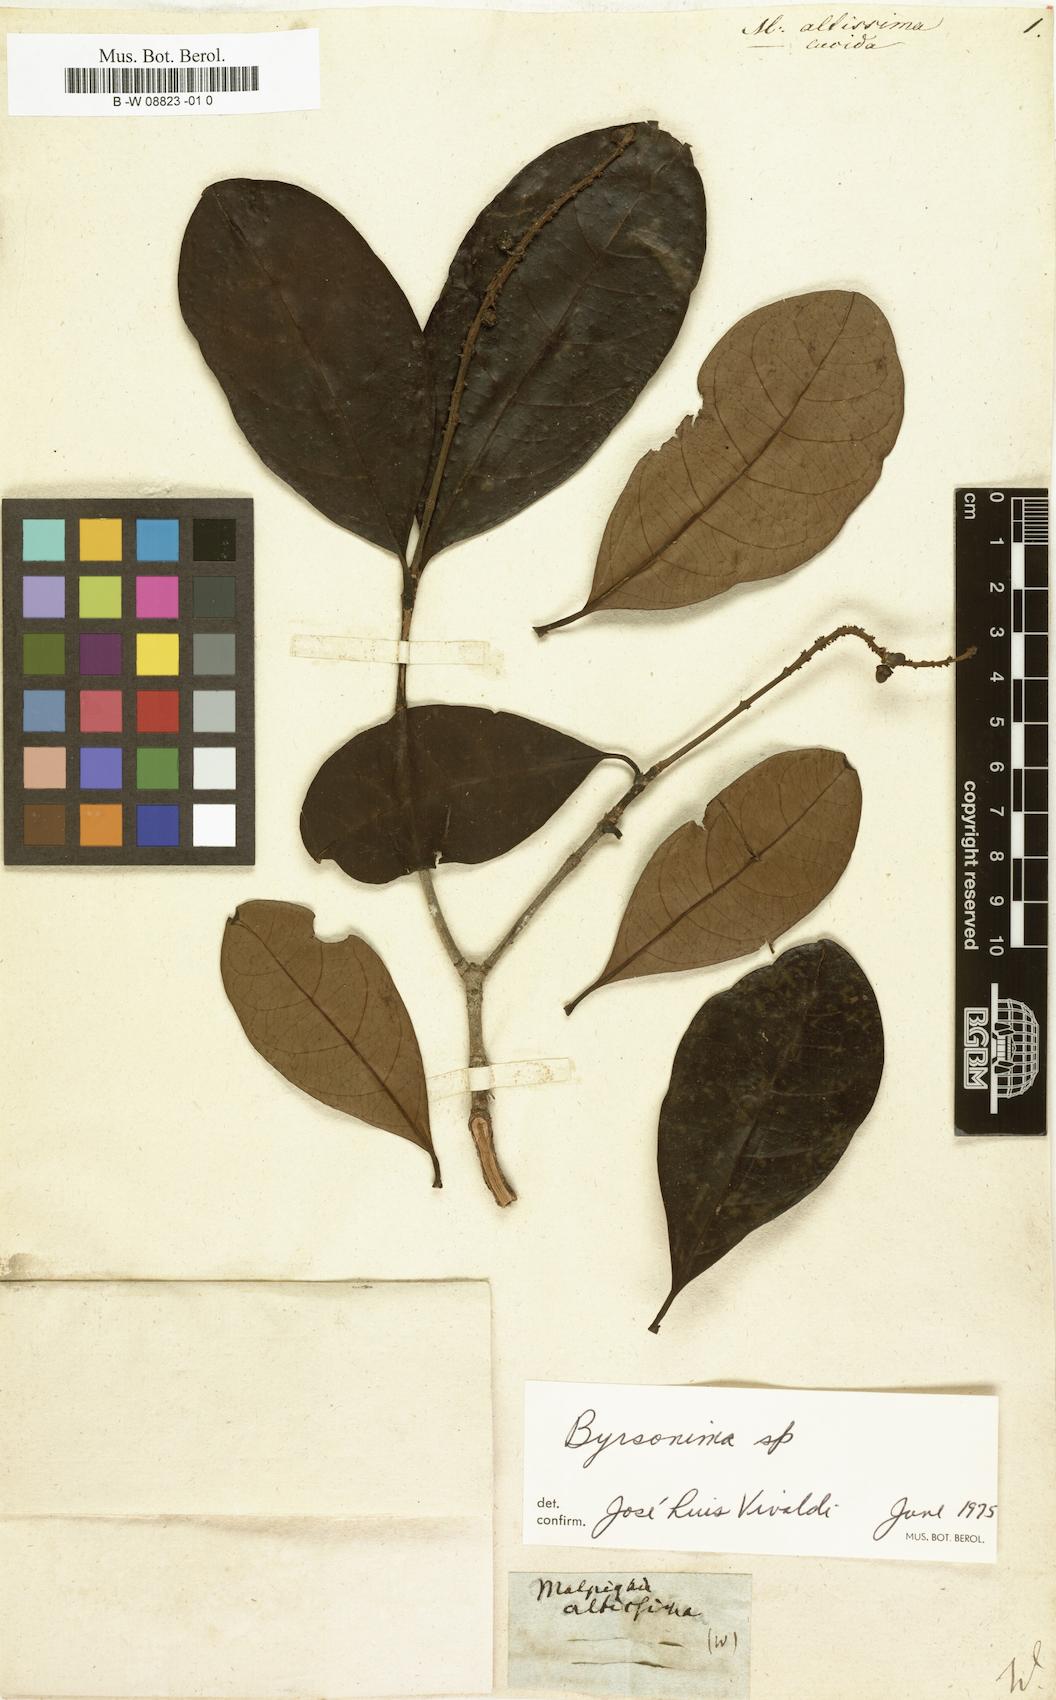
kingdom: Plantae
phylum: Tracheophyta
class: Magnoliopsida
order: Malpighiales
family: Malpighiaceae
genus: Byrsonima
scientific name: Byrsonima
